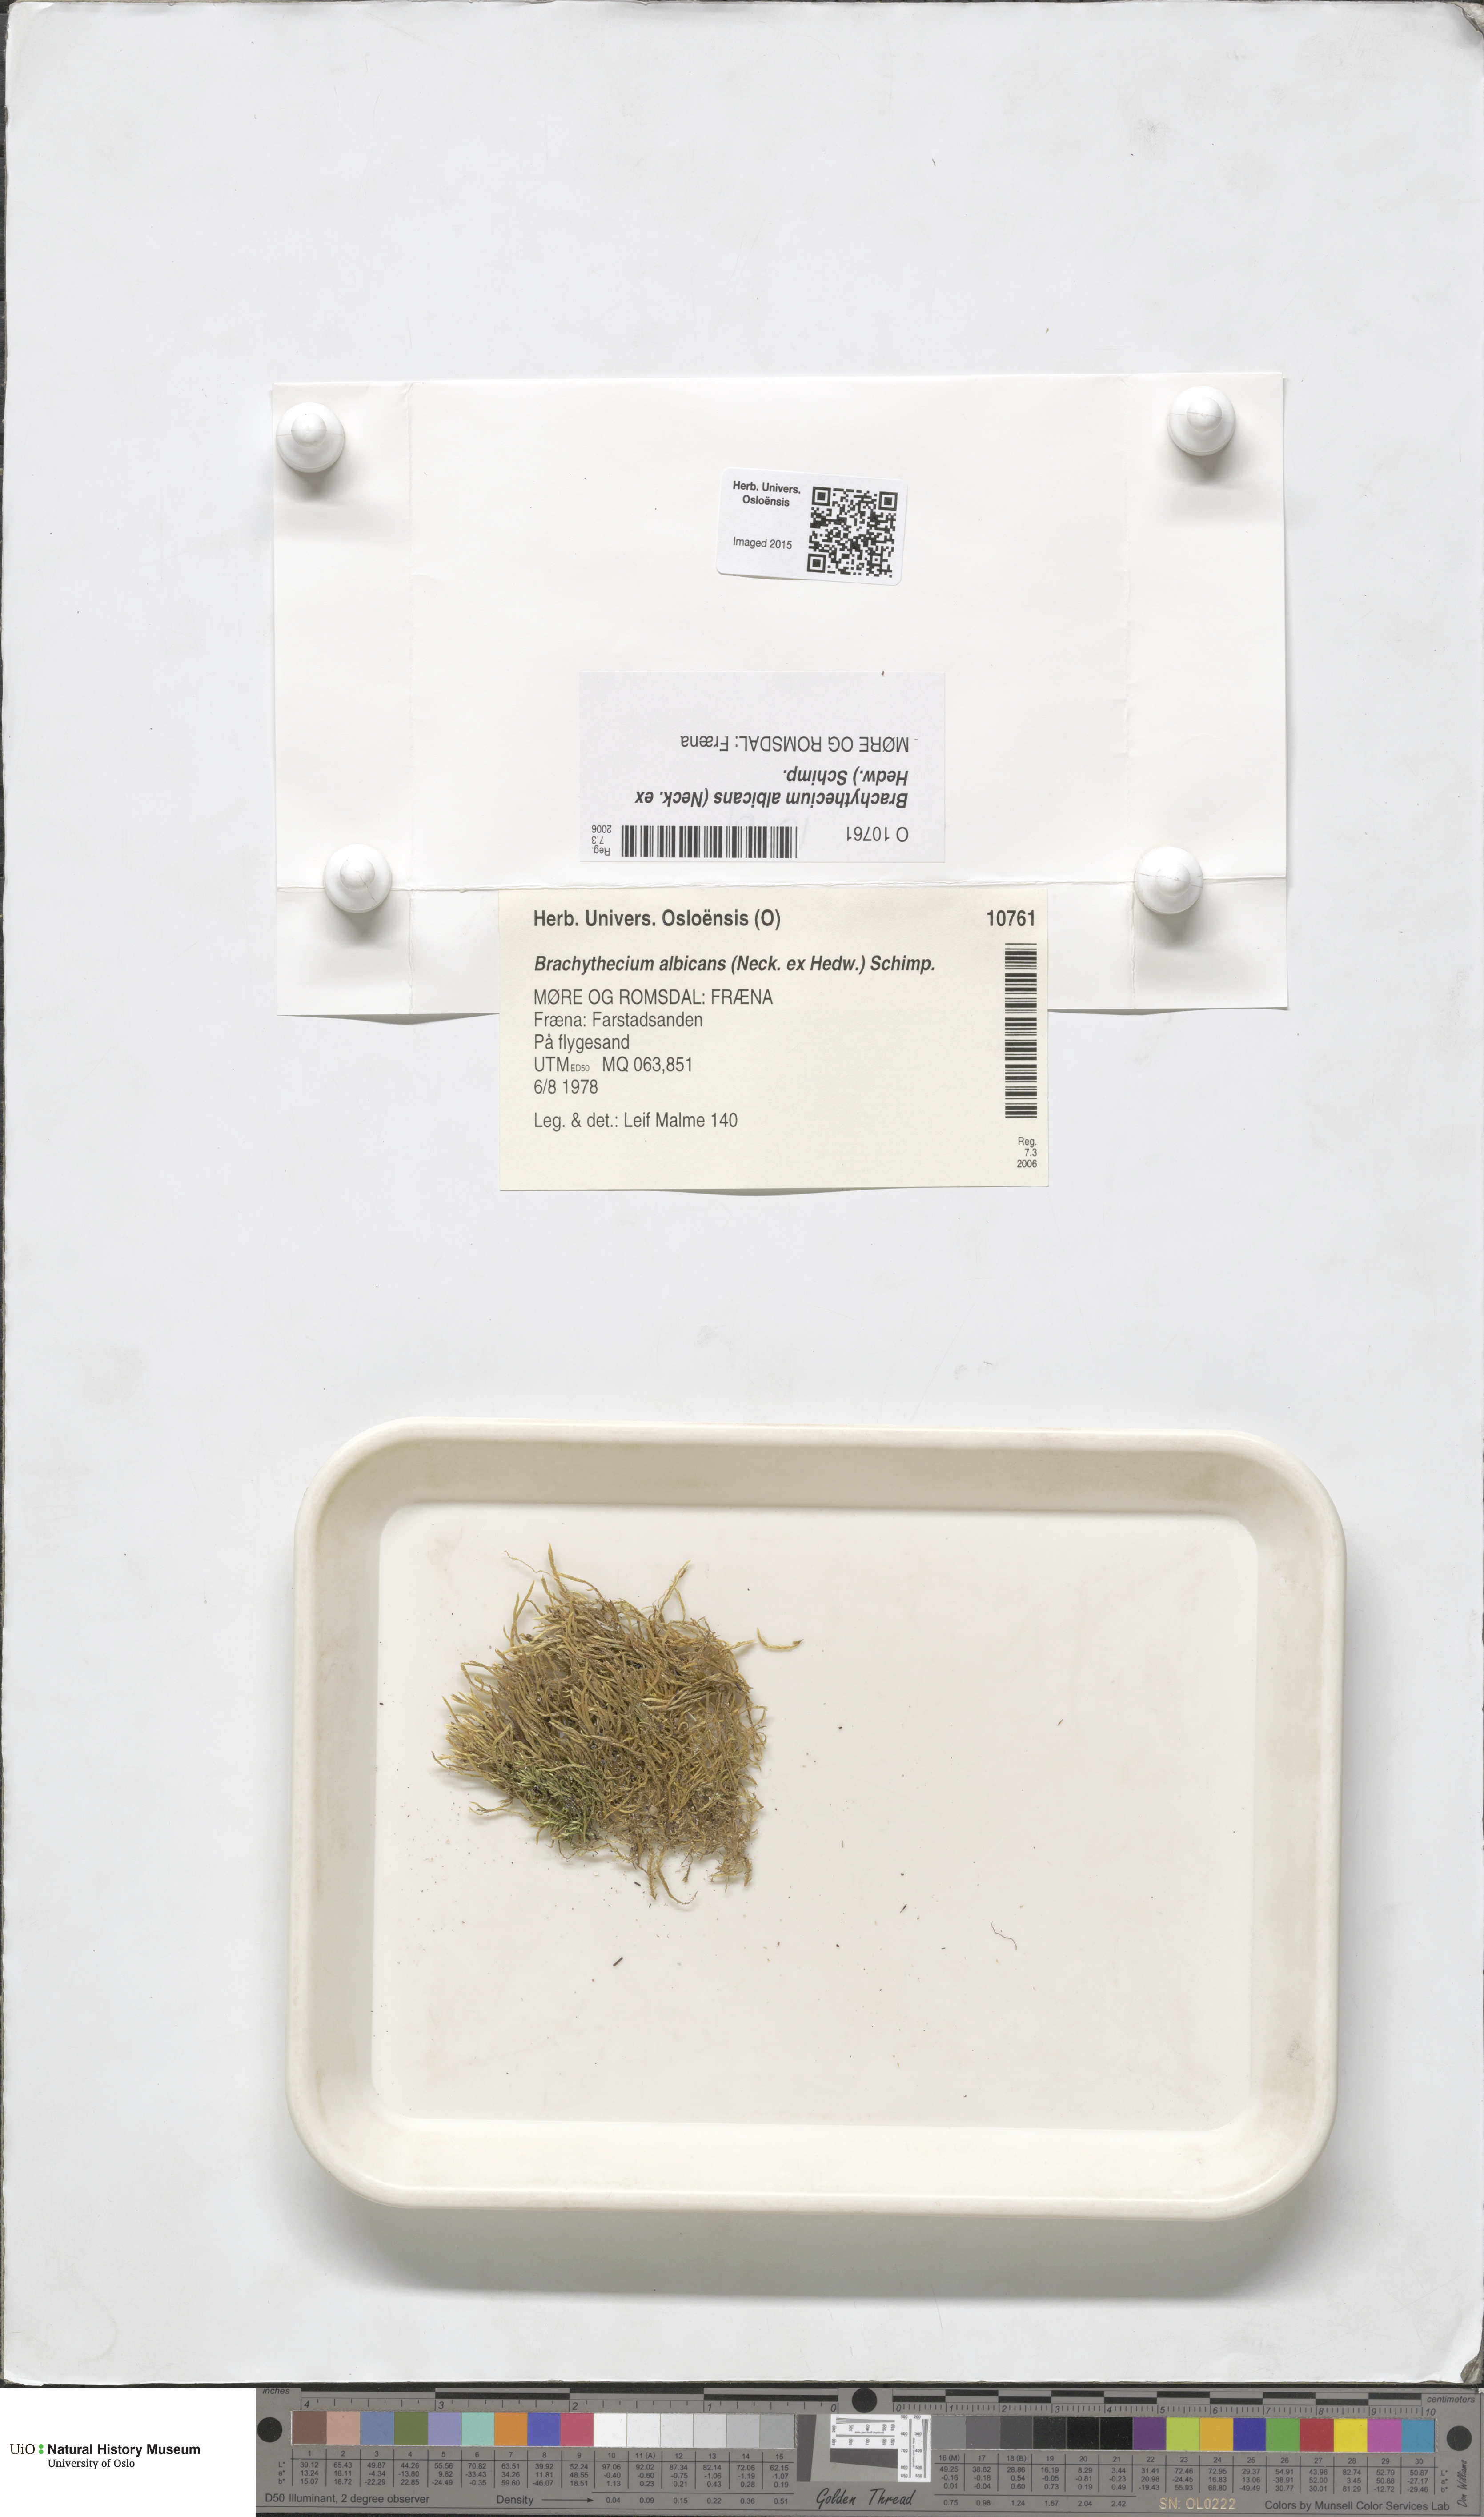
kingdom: Plantae
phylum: Bryophyta
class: Bryopsida
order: Hypnales
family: Brachytheciaceae
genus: Brachythecium
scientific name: Brachythecium albicans
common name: Whitish ragged moss
